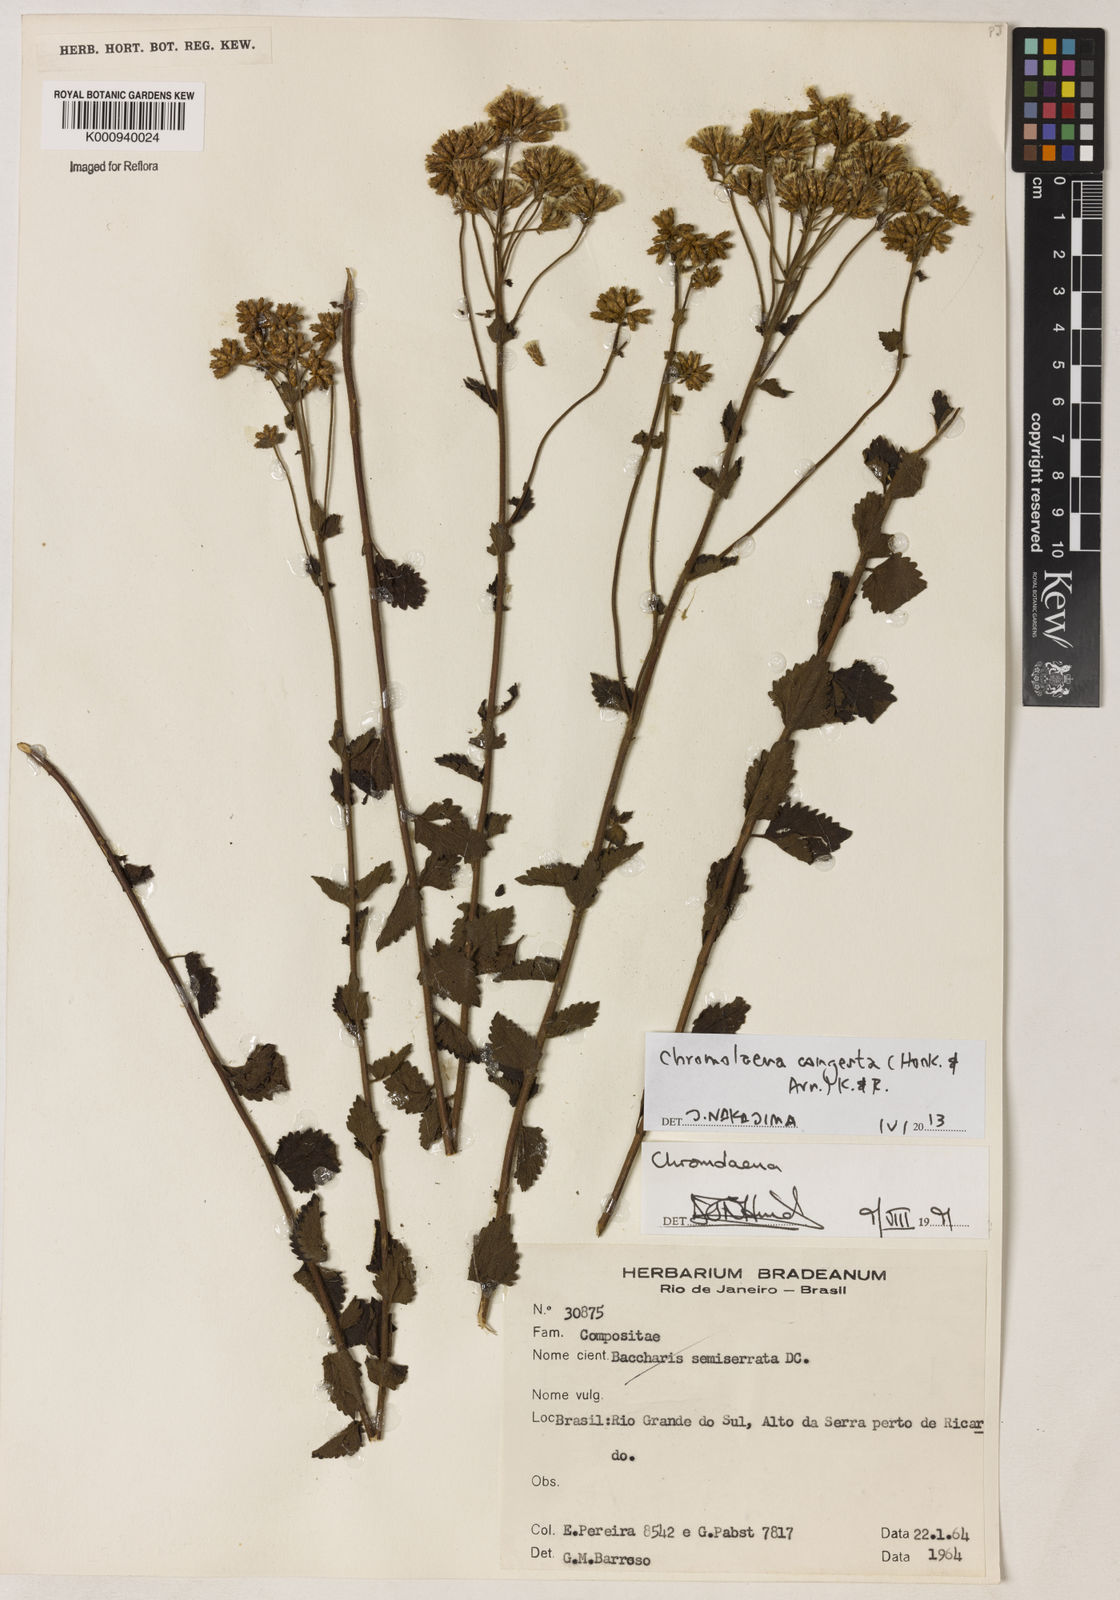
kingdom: Plantae
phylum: Tracheophyta
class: Magnoliopsida
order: Asterales
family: Asteraceae
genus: Chromolaena
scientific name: Chromolaena congesta
